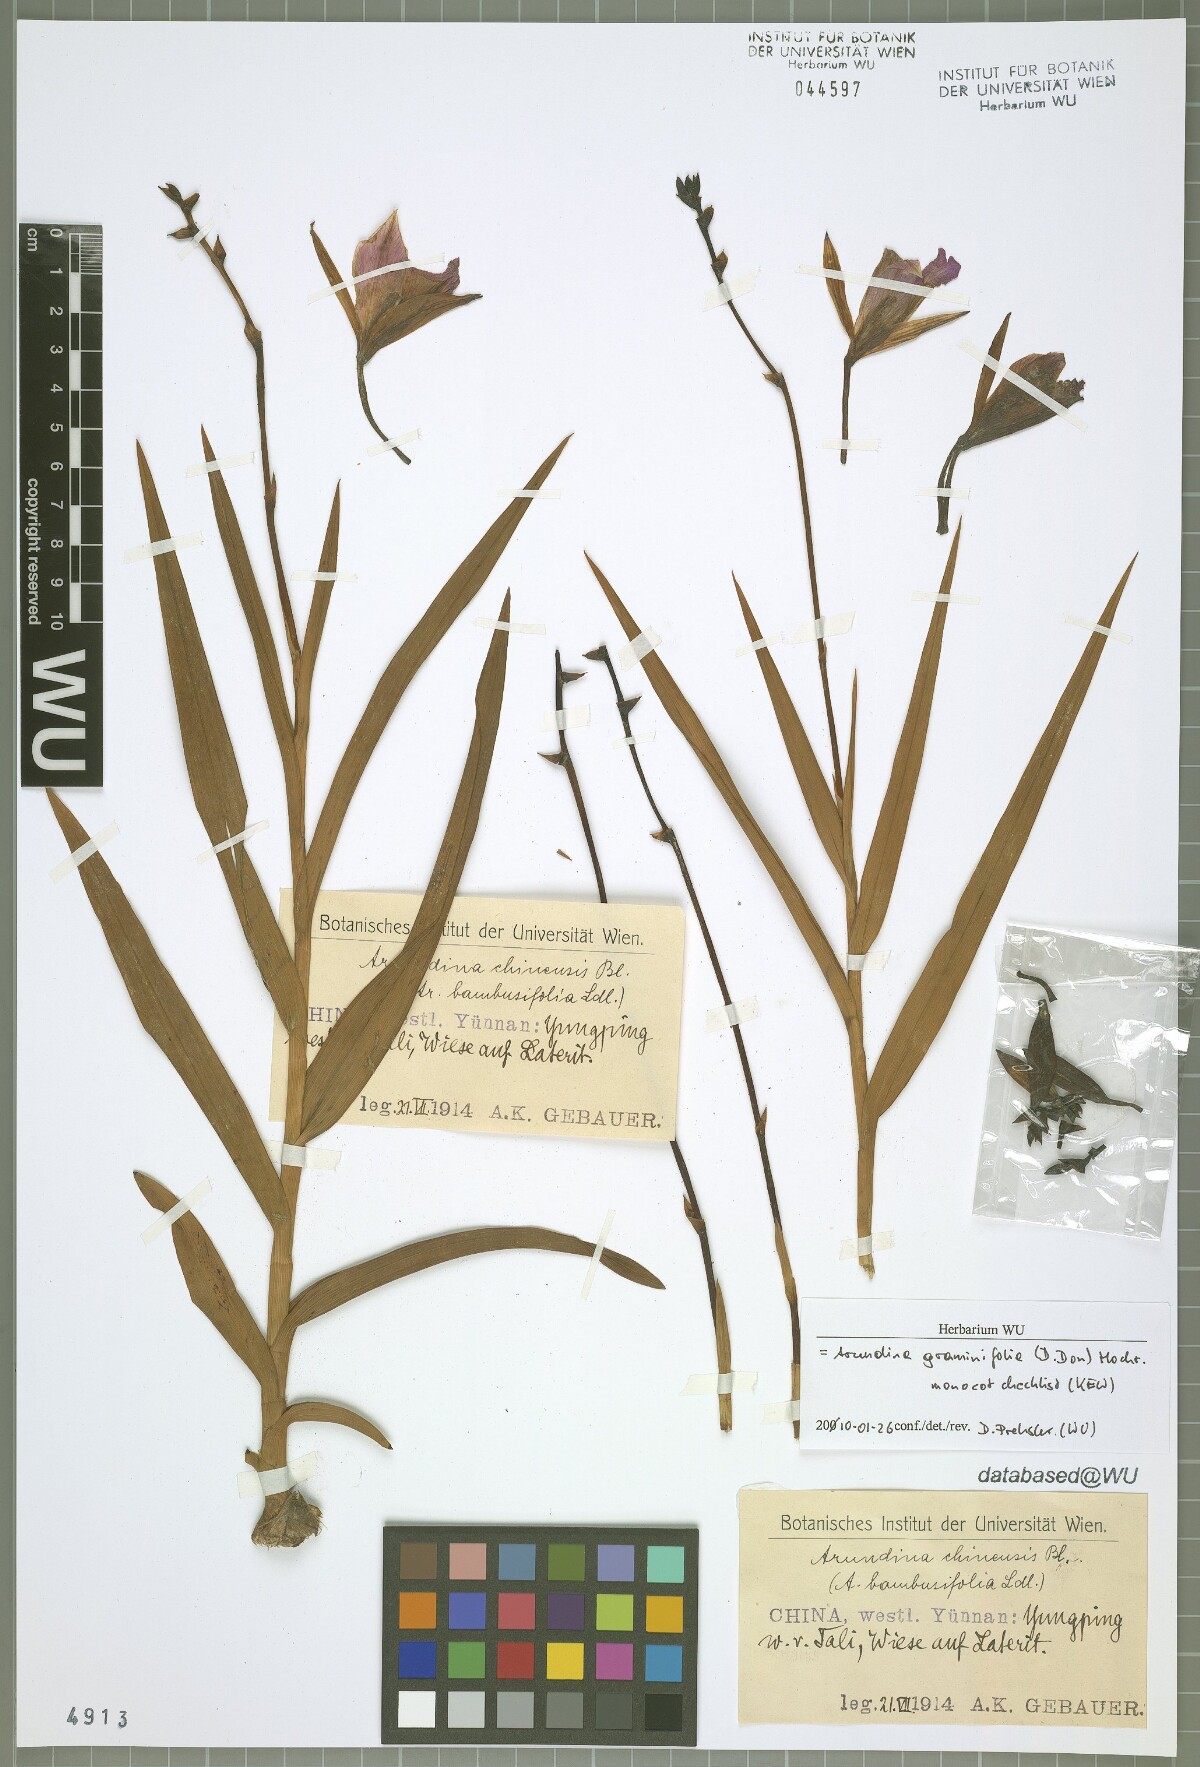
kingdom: Plantae
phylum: Tracheophyta
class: Liliopsida
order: Asparagales
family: Orchidaceae
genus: Arundina
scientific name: Arundina graminifolia
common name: Bamboo orchid
